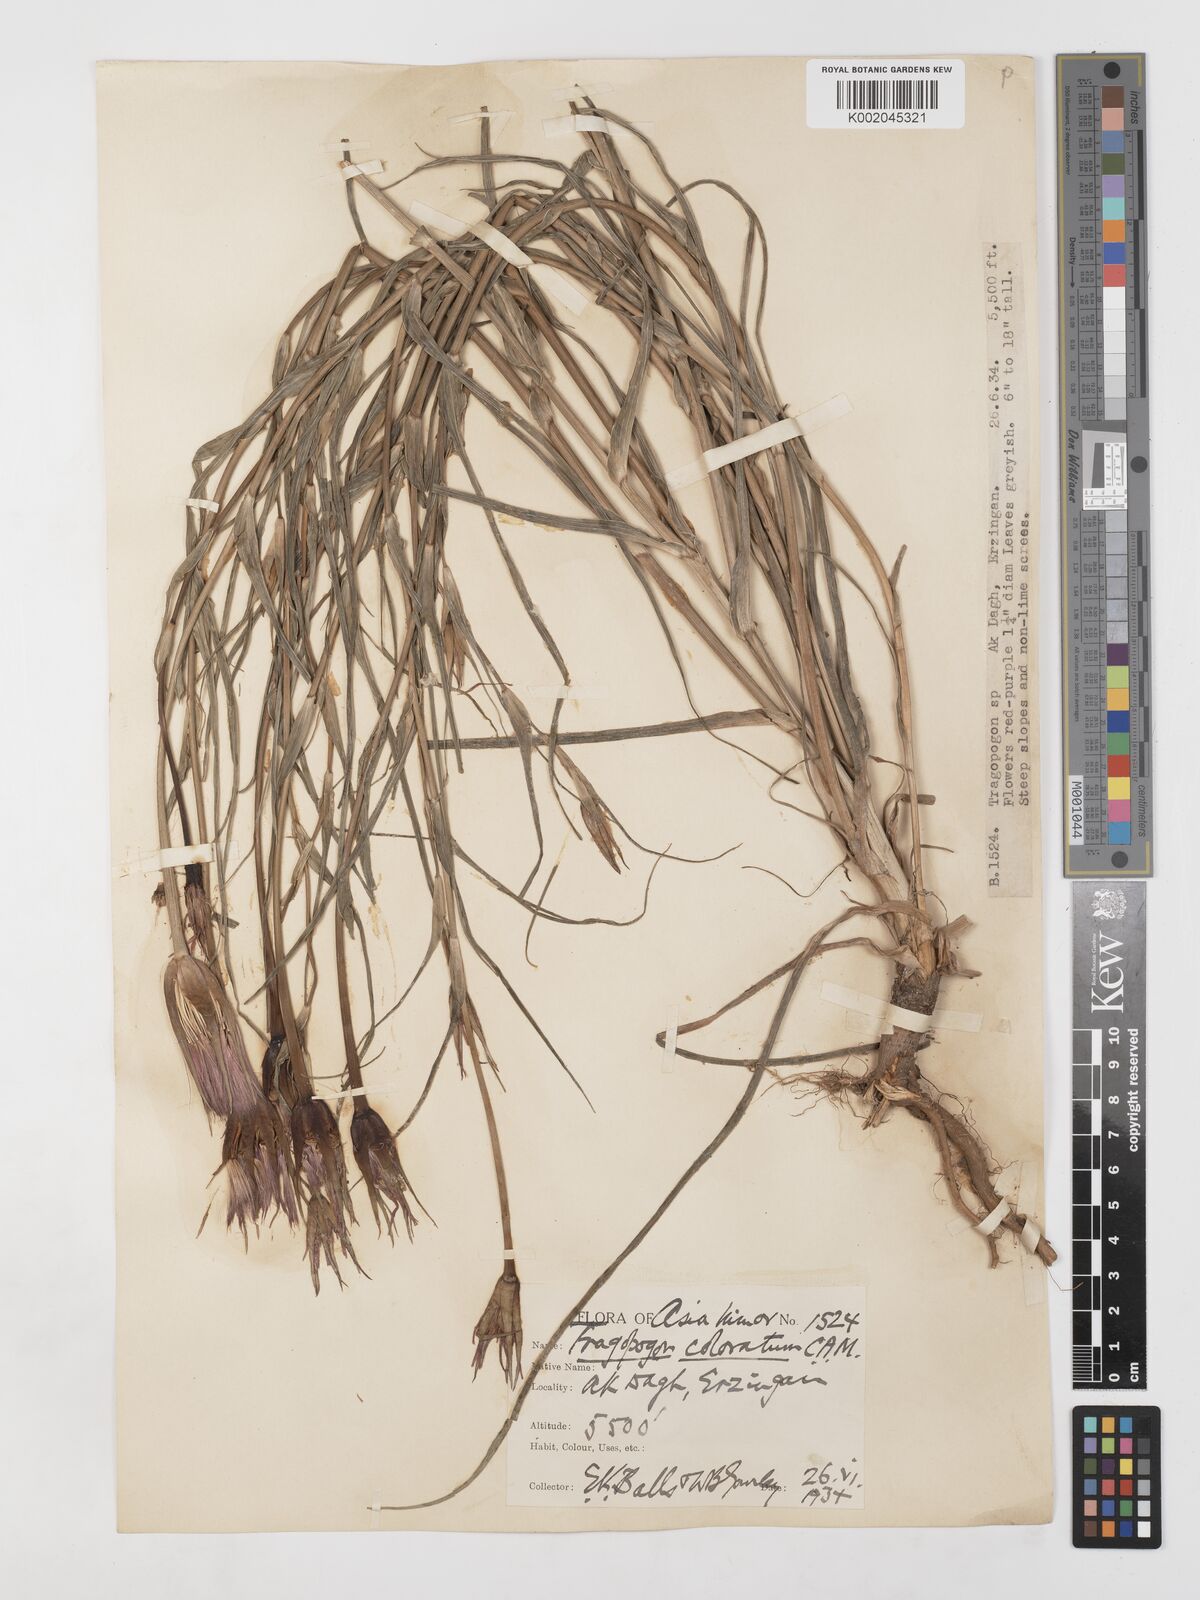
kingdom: Plantae
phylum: Tracheophyta
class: Magnoliopsida
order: Asterales
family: Asteraceae
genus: Tragopogon
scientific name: Tragopogon coloratus
